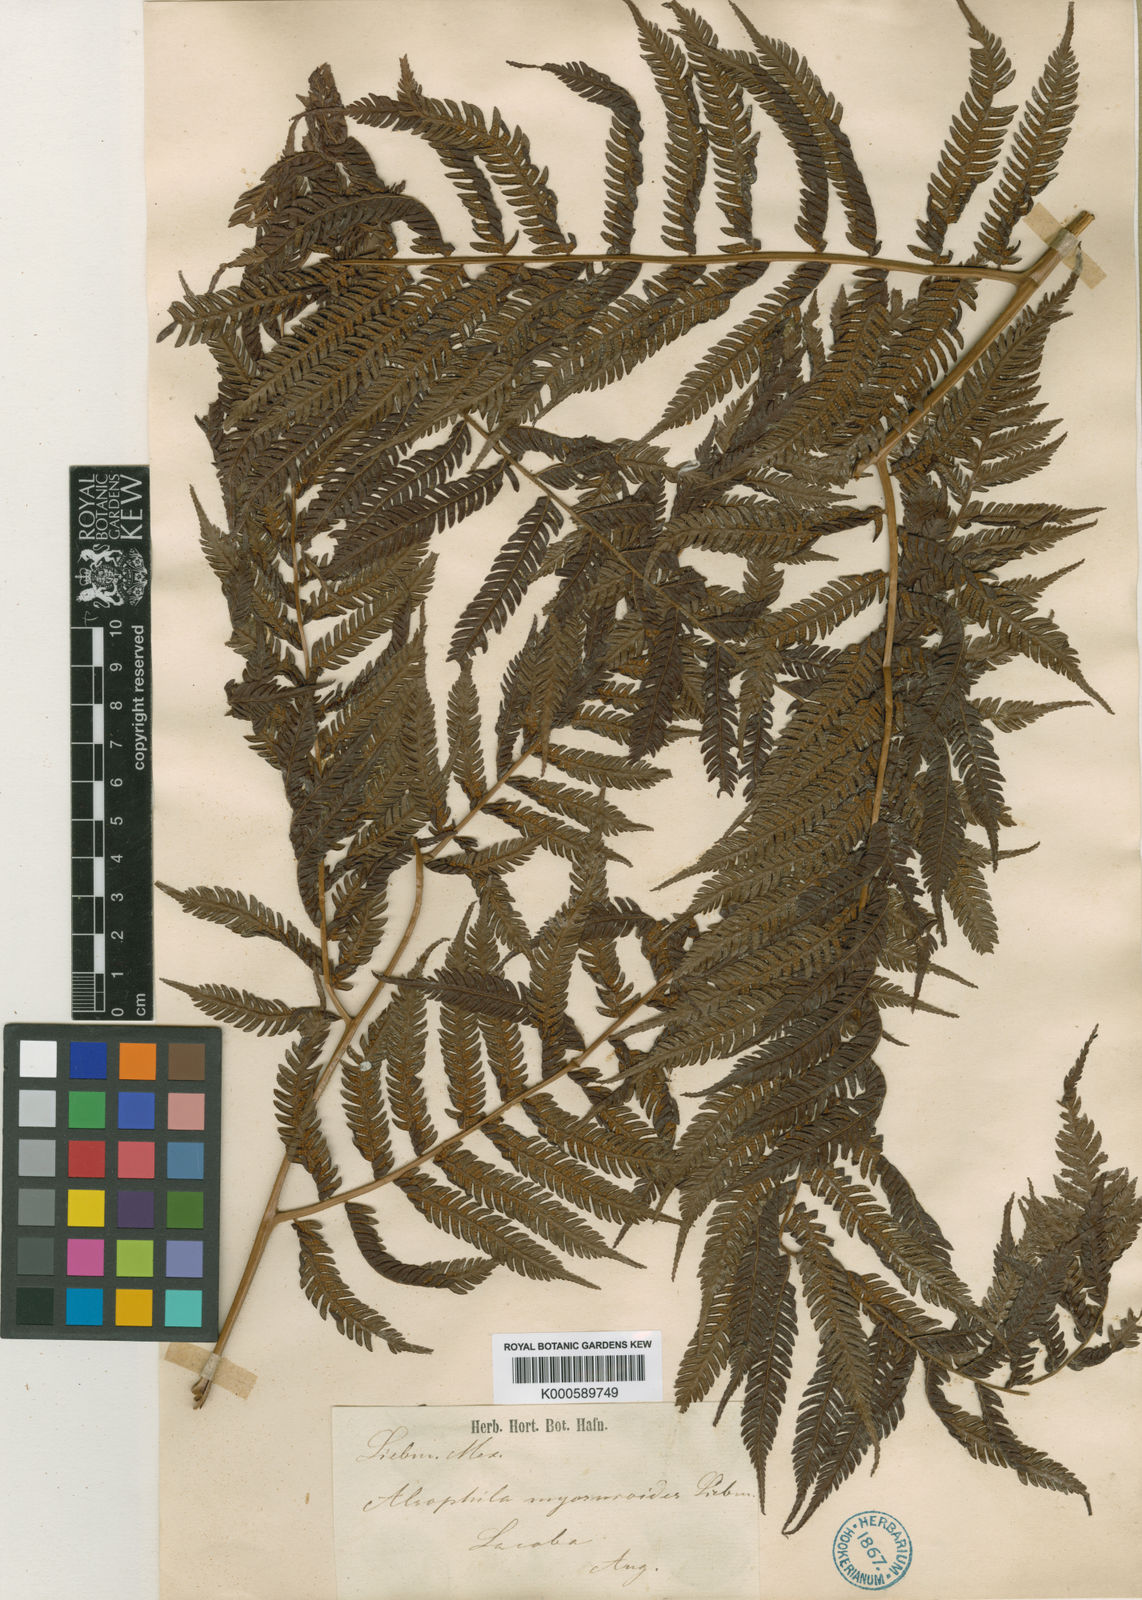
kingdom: Plantae
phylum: Tracheophyta
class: Polypodiopsida
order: Cyatheales
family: Cyatheaceae
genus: Sphaeropteris
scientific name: Sphaeropteris myosuroides
